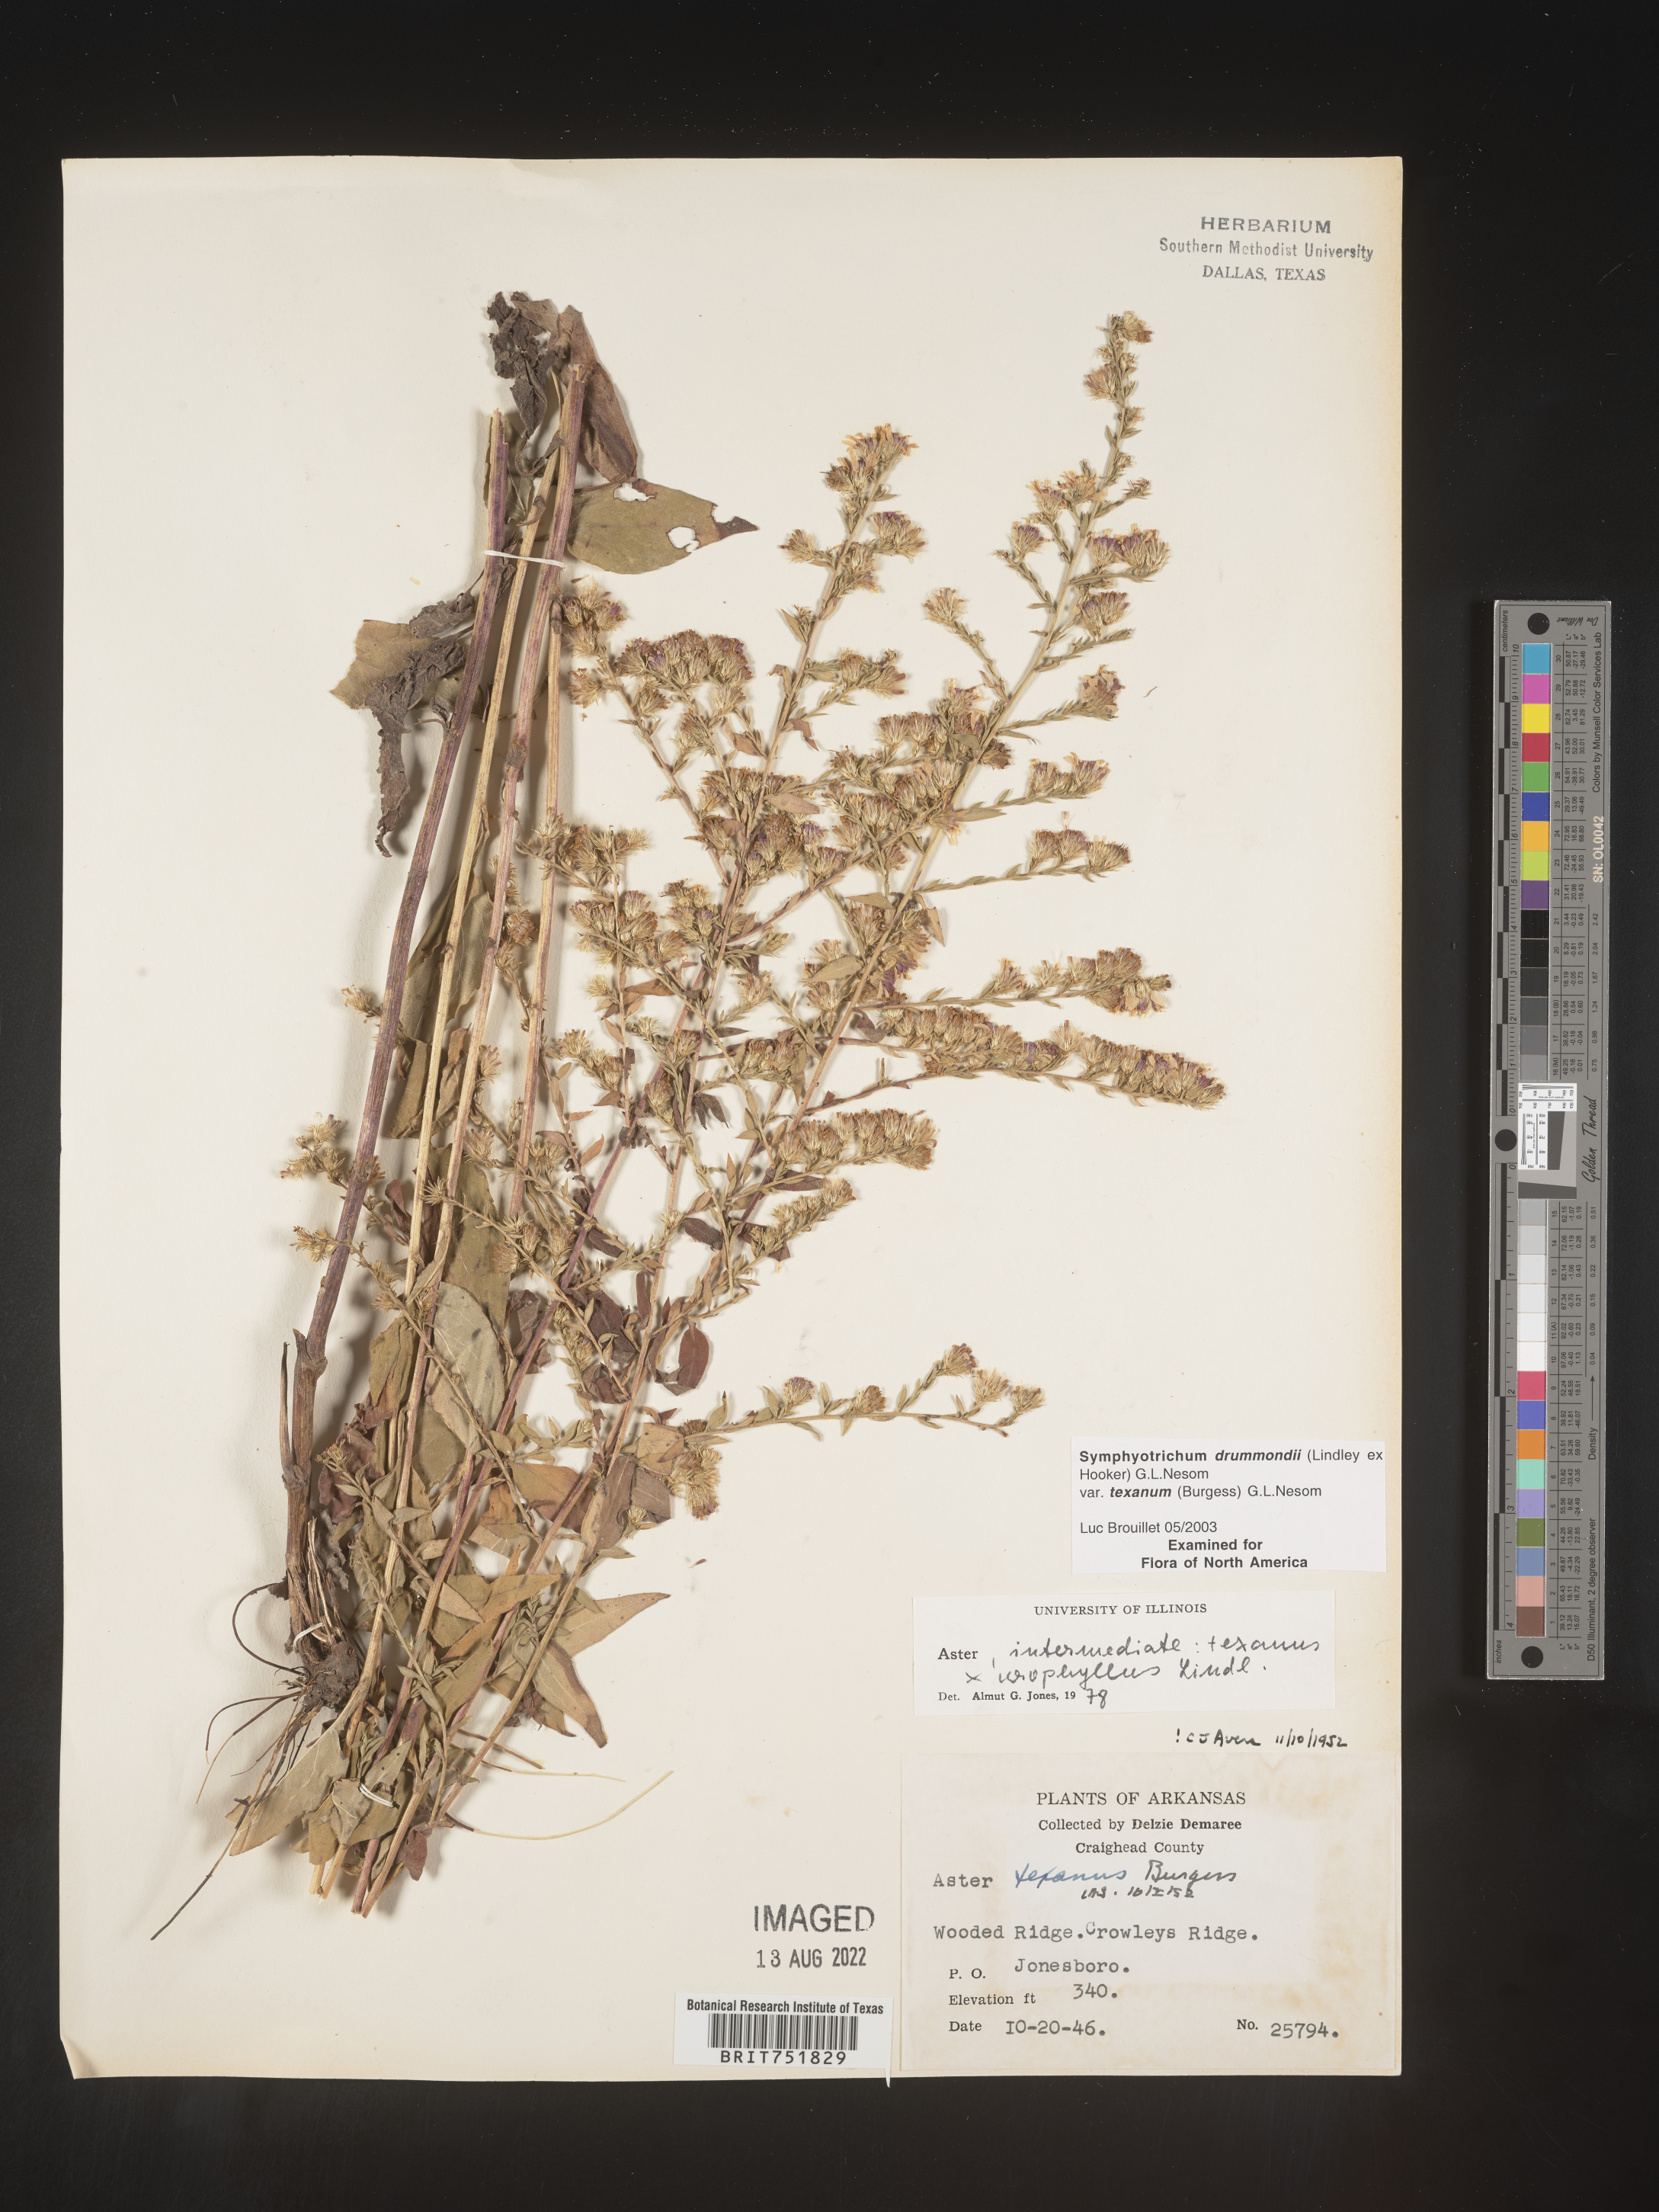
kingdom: Plantae
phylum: Tracheophyta
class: Magnoliopsida
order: Asterales
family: Asteraceae
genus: Symphyotrichum
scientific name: Symphyotrichum drummondii
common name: Drummond's aster
